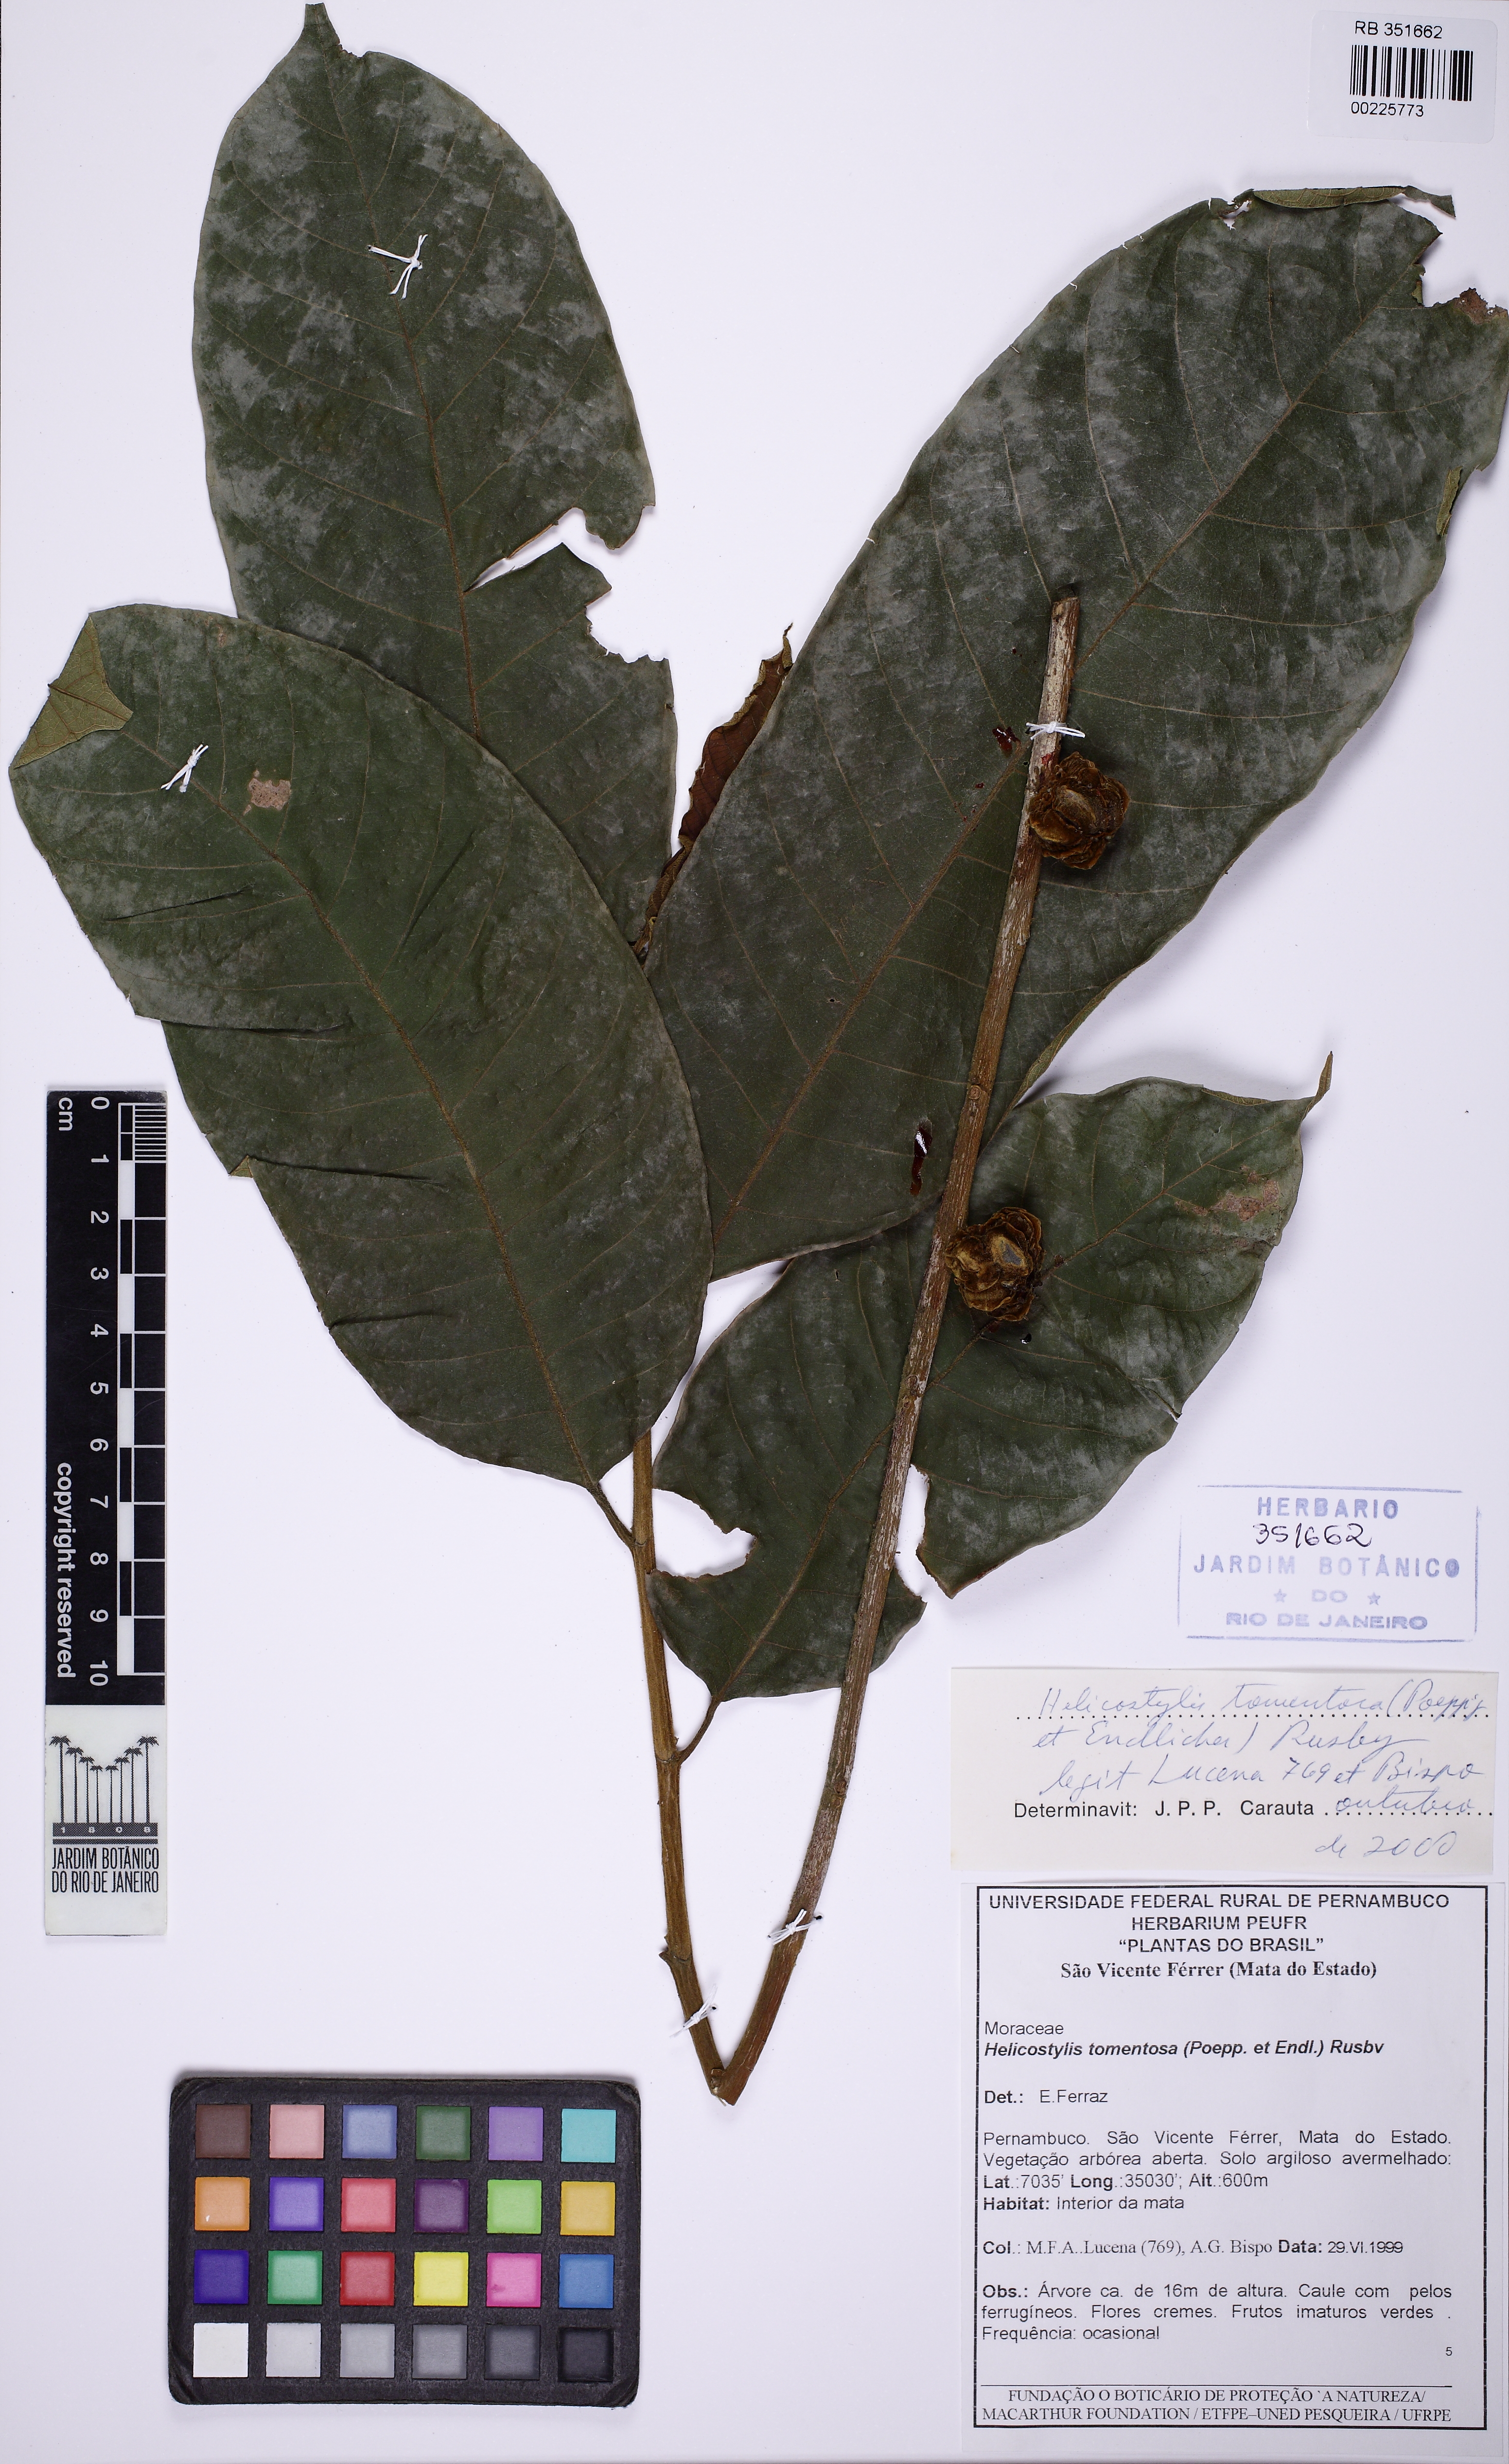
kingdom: Plantae
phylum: Tracheophyta
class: Magnoliopsida
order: Rosales
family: Moraceae
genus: Helicostylis
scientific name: Helicostylis tomentosa
